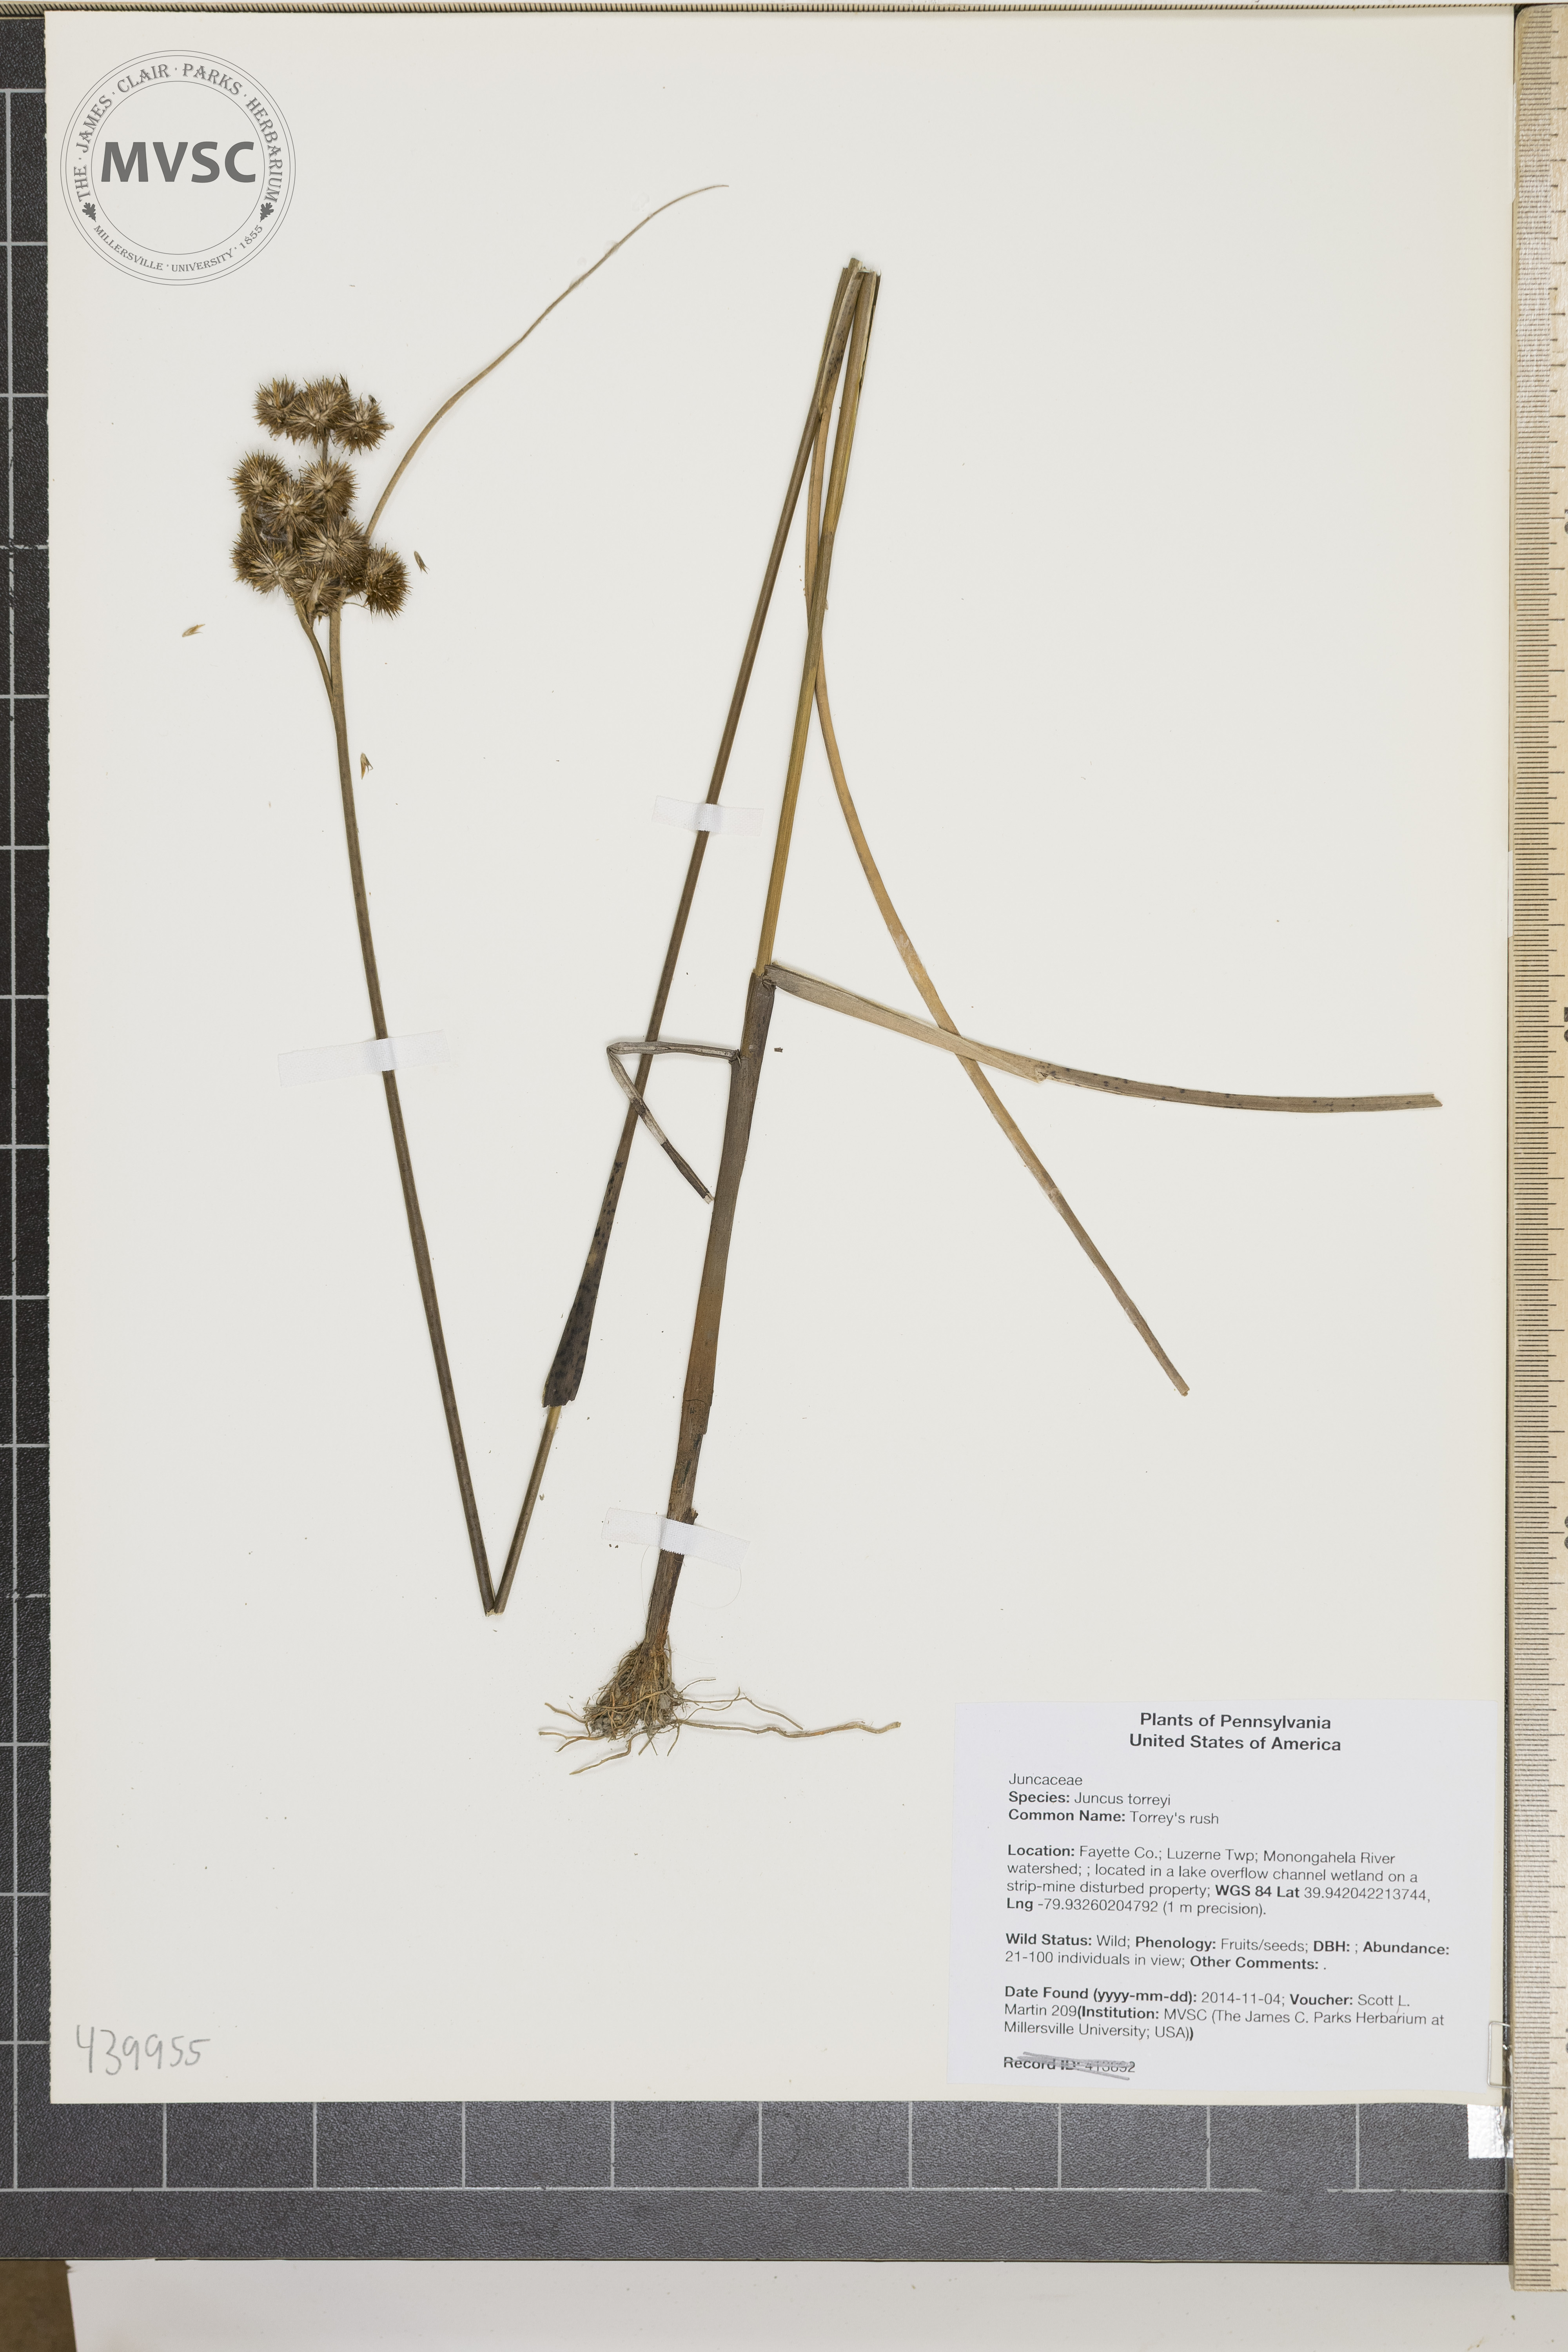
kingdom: Plantae
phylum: Tracheophyta
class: Liliopsida
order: Poales
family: Juncaceae
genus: Juncus
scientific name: Juncus torreyi
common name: Torrey's rush
